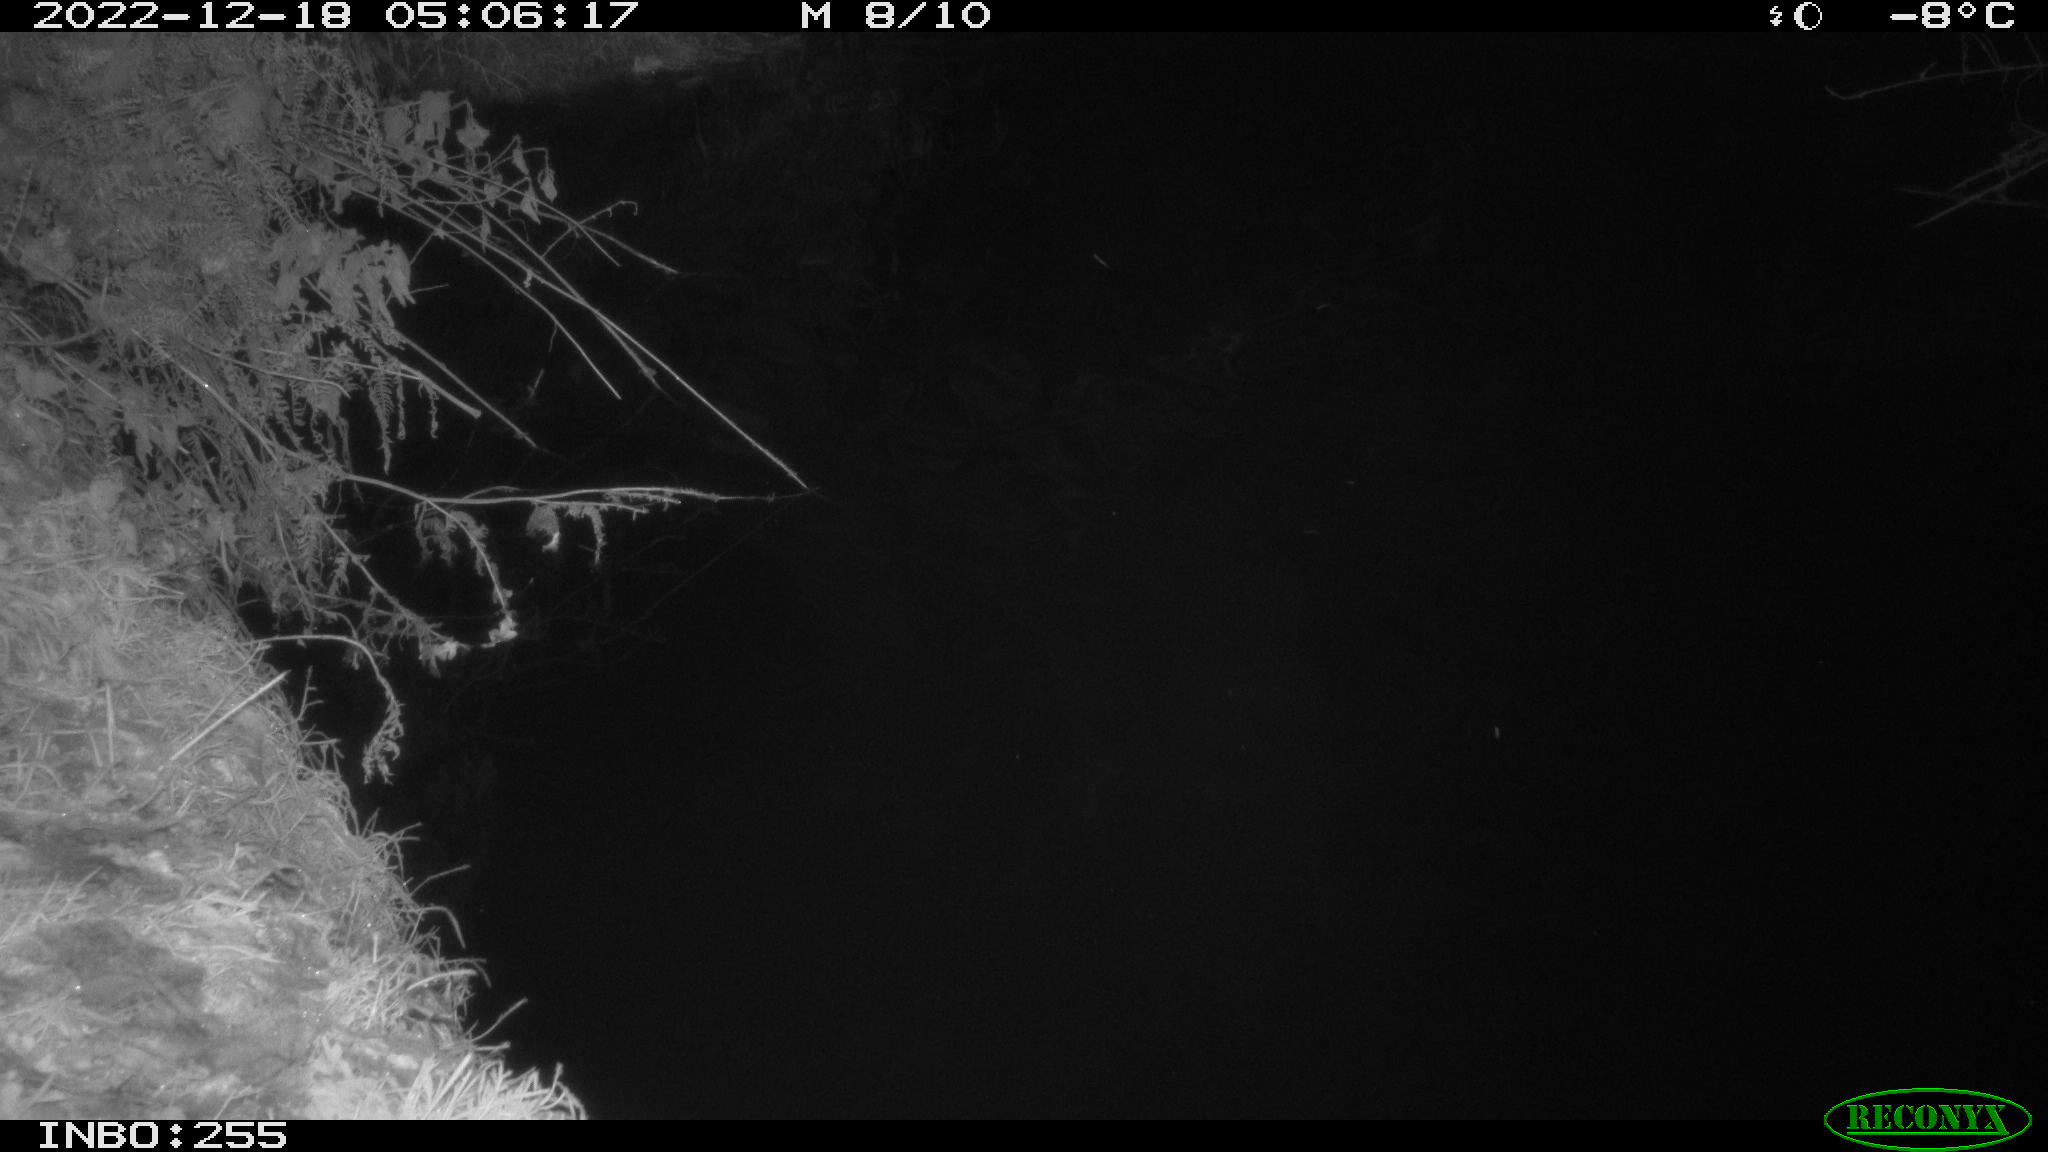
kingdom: Animalia
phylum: Chordata
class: Aves
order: Anseriformes
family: Anatidae
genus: Anas
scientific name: Anas
